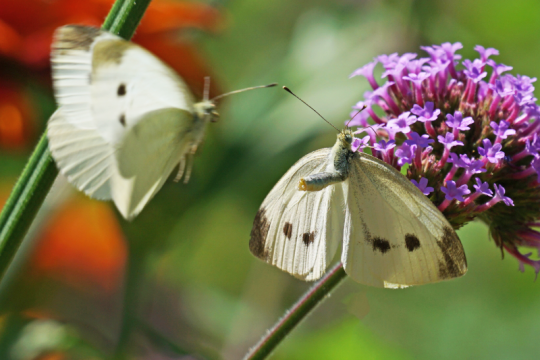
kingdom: Animalia
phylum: Arthropoda
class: Insecta
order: Lepidoptera
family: Pieridae
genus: Pieris
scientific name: Pieris rapae
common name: Cabbage White
